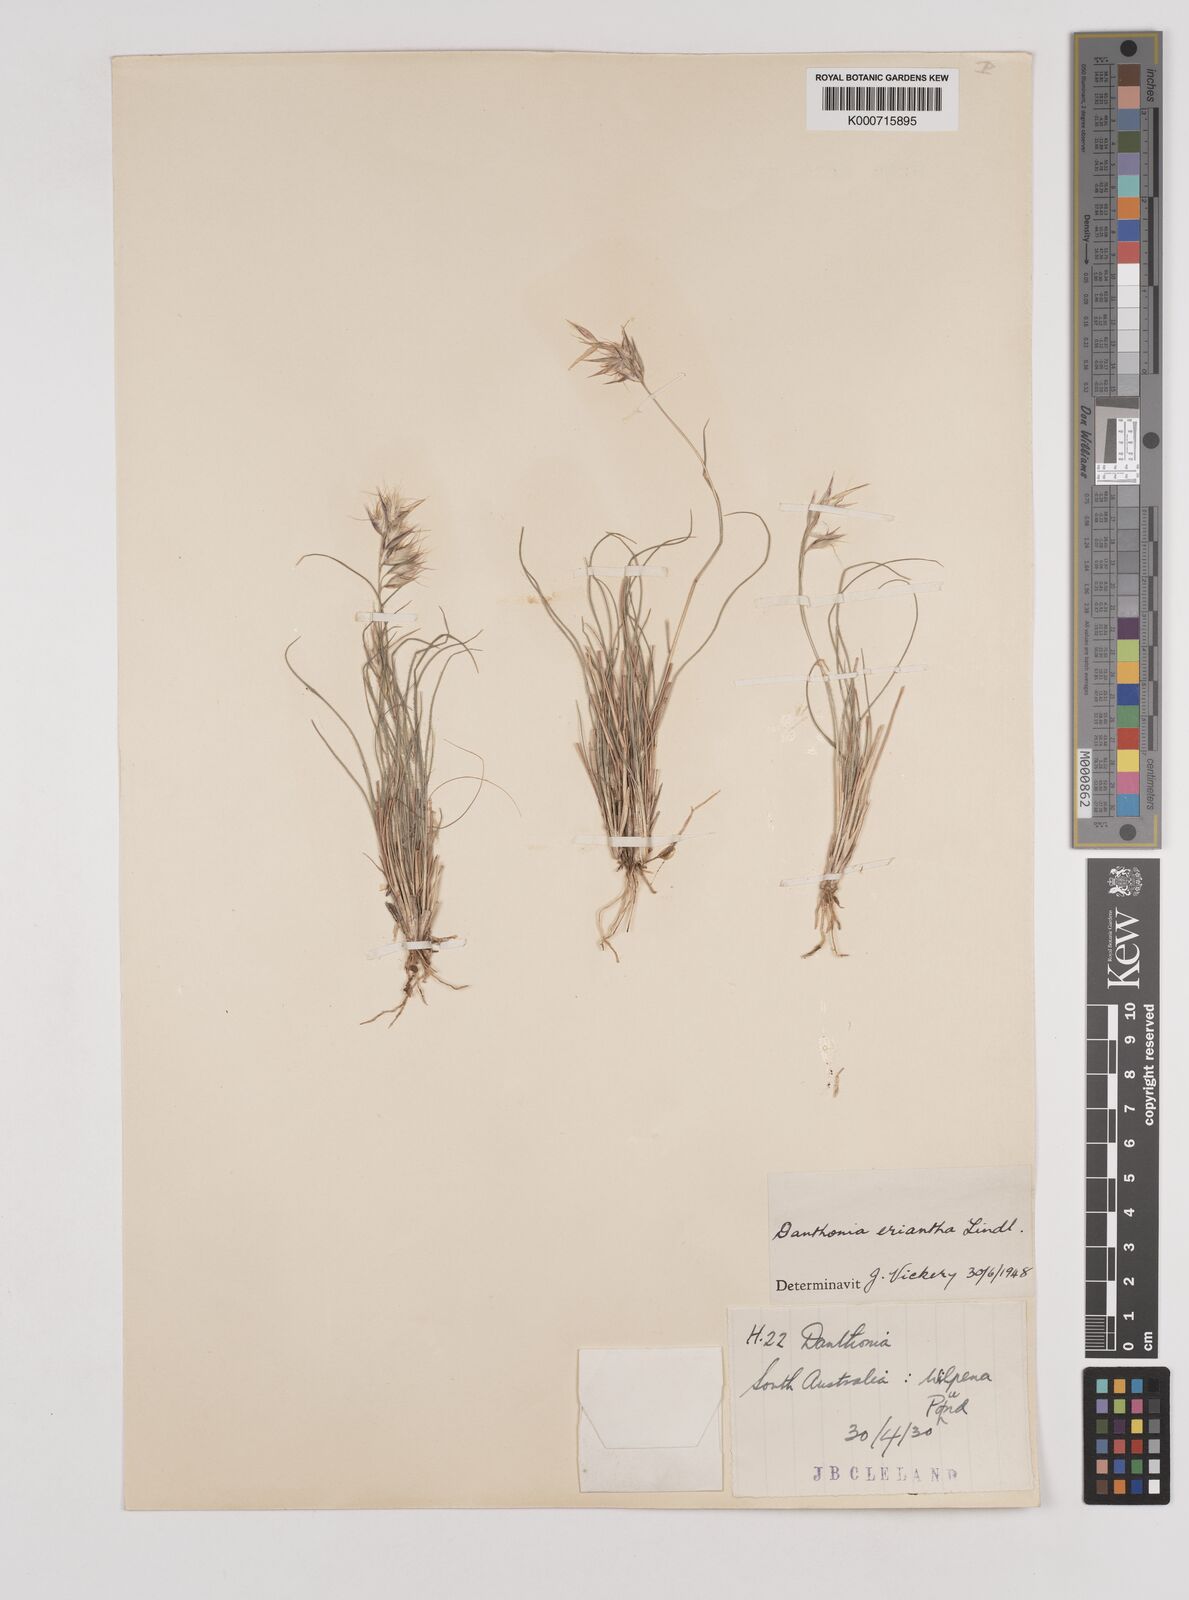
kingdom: Plantae
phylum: Tracheophyta
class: Liliopsida
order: Poales
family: Poaceae
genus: Rytidosperma
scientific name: Rytidosperma erianthum
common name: Hill wallaby grass
